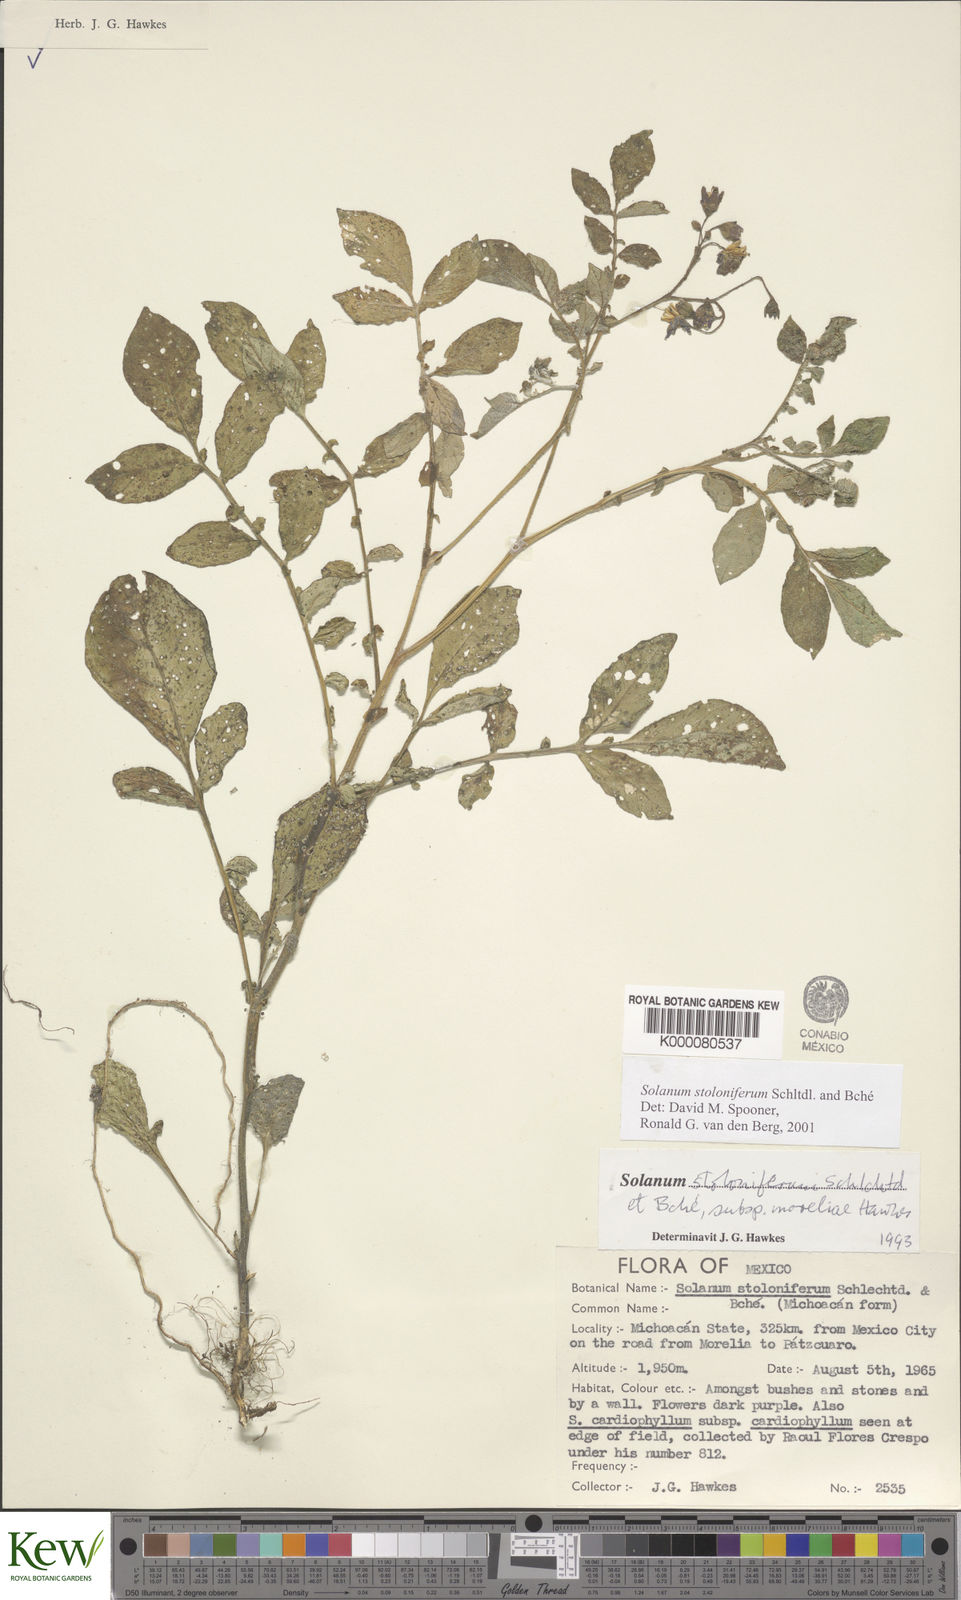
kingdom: Plantae
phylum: Tracheophyta
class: Magnoliopsida
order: Solanales
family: Solanaceae
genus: Solanum
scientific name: Solanum stoloniferum
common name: Fendler's nighshade
